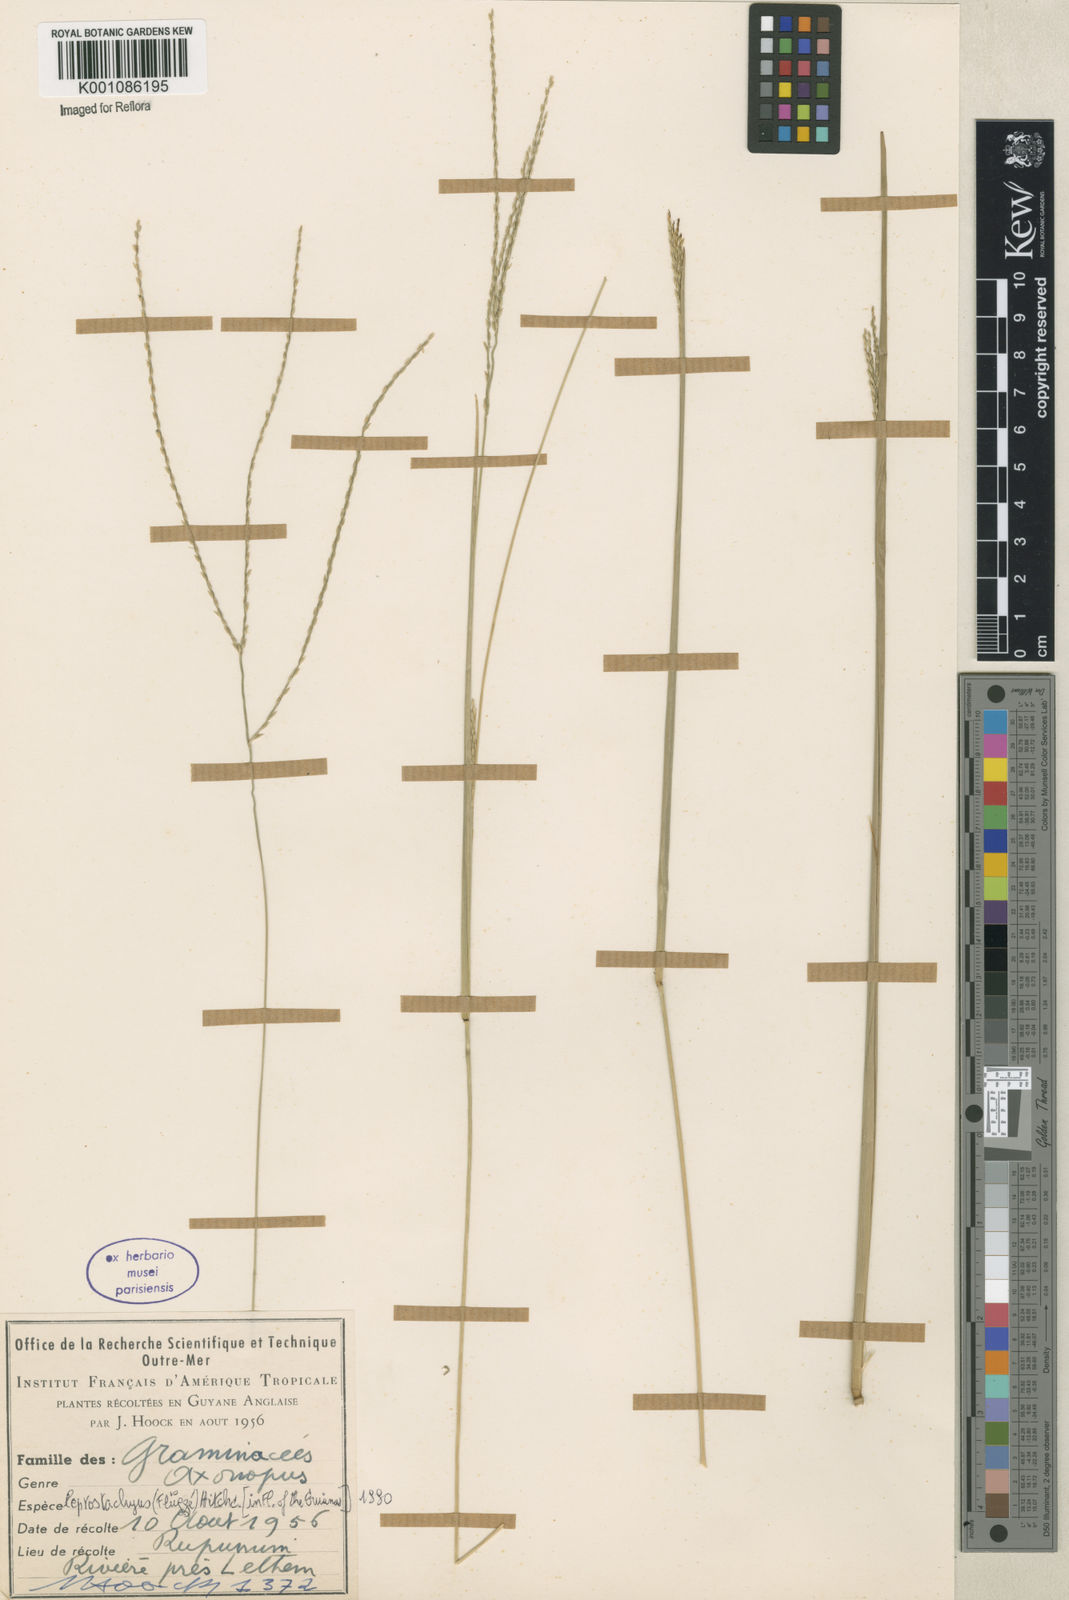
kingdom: Plantae
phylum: Tracheophyta
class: Liliopsida
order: Poales
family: Poaceae
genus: Axonopus
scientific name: Axonopus
